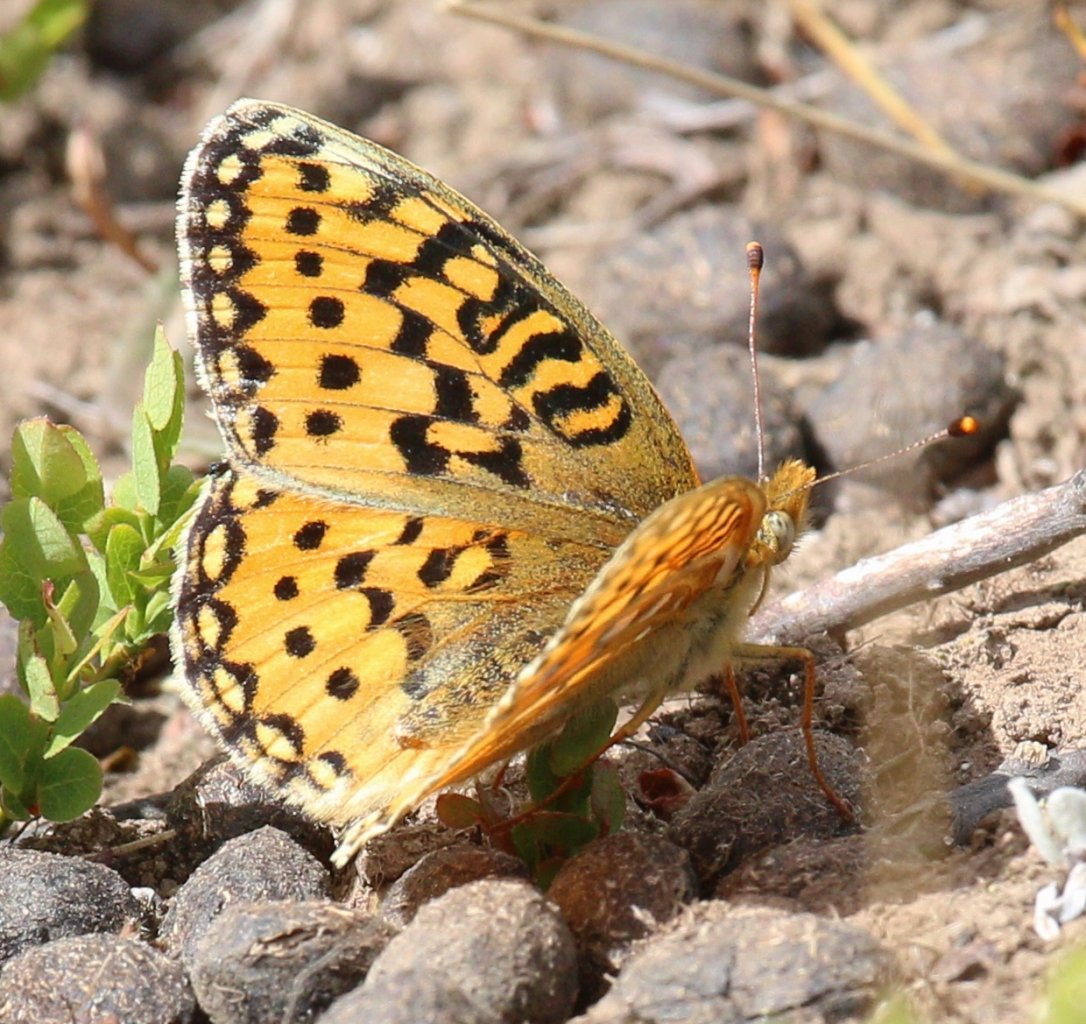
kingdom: Animalia
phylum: Arthropoda
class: Insecta
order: Lepidoptera
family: Nymphalidae
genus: Speyeria
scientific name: Speyeria mormonia
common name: Mormon Fritillary
